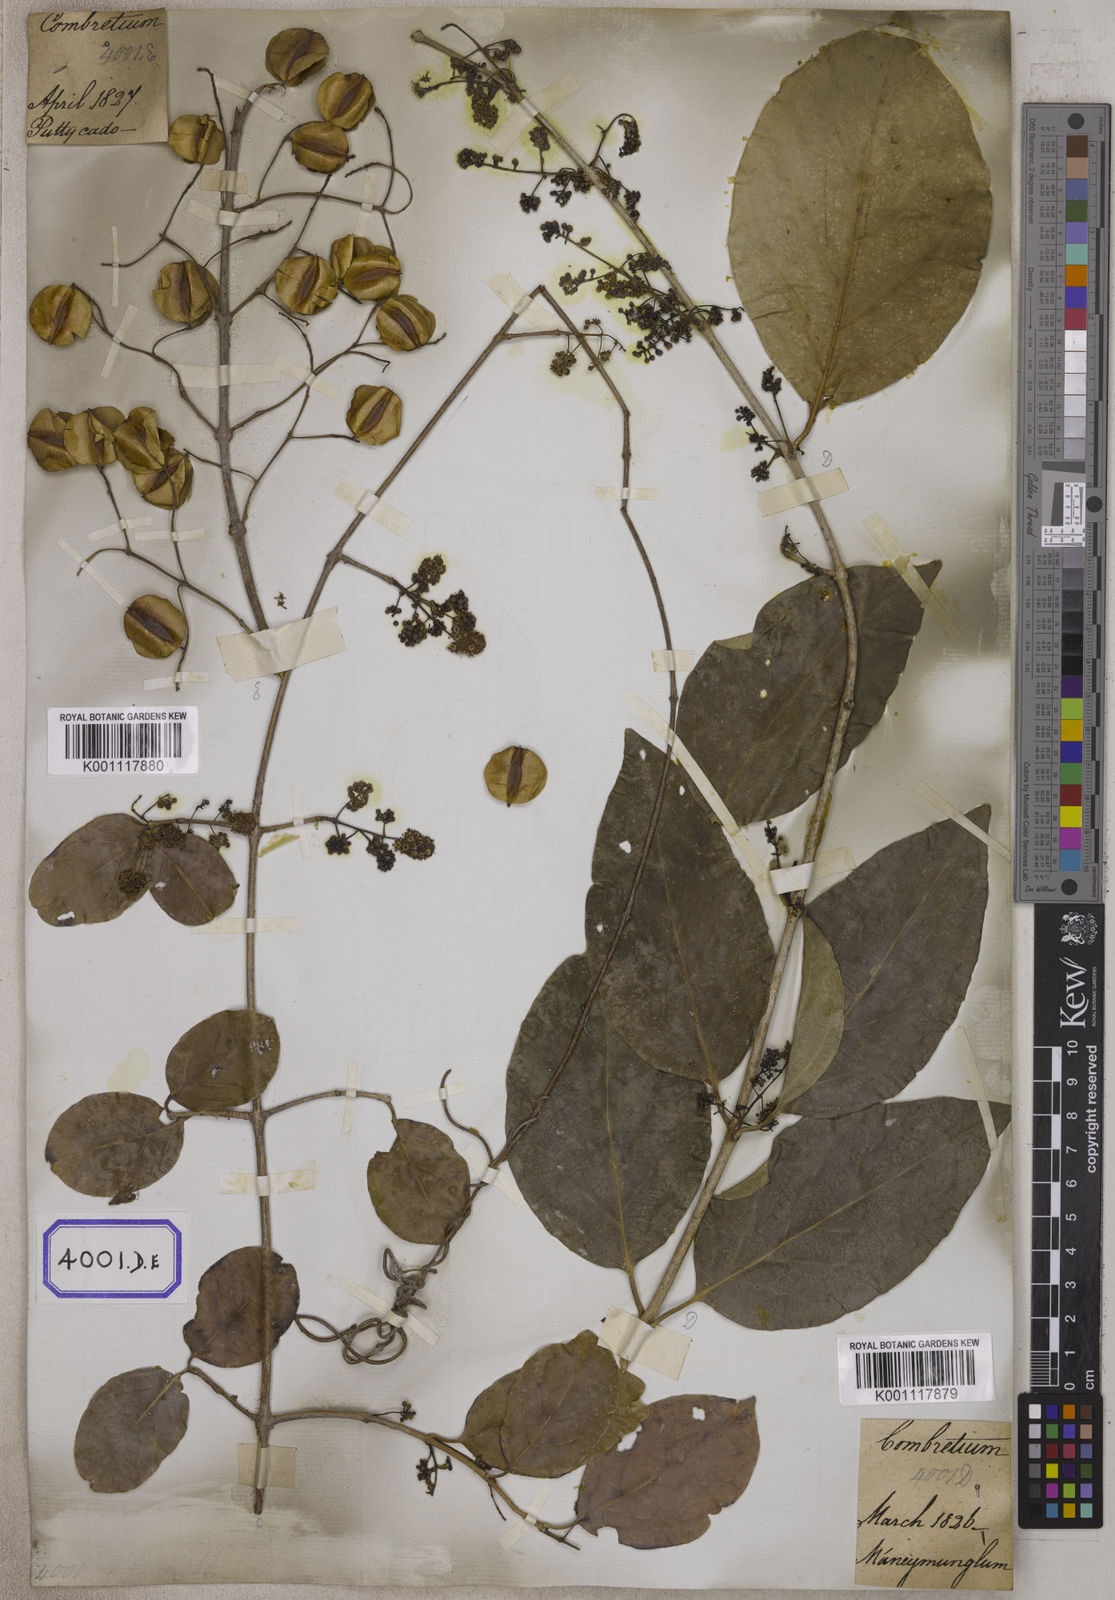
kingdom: Plantae
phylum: Tracheophyta
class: Magnoliopsida
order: Myrtales
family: Combretaceae
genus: Combretum
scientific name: Combretum albidum
